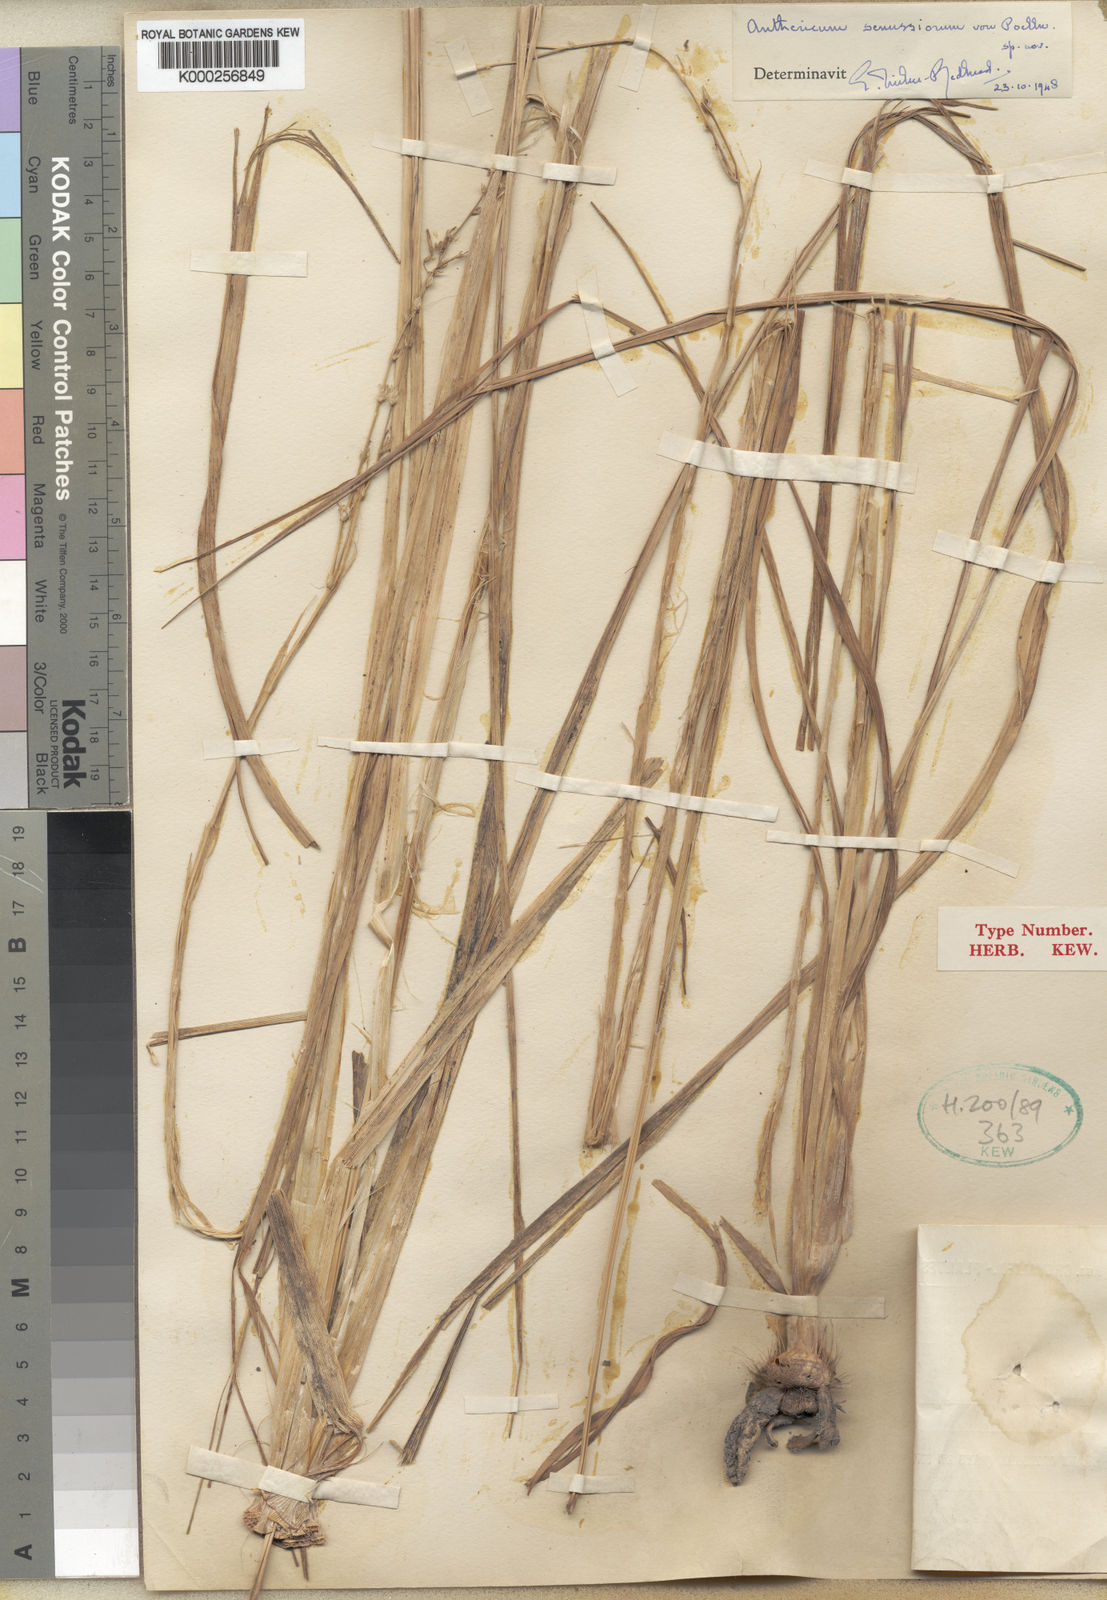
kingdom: Plantae
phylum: Tracheophyta
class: Liliopsida
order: Asparagales
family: Asparagaceae
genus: Chlorophytum
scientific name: Chlorophytum nubicum
